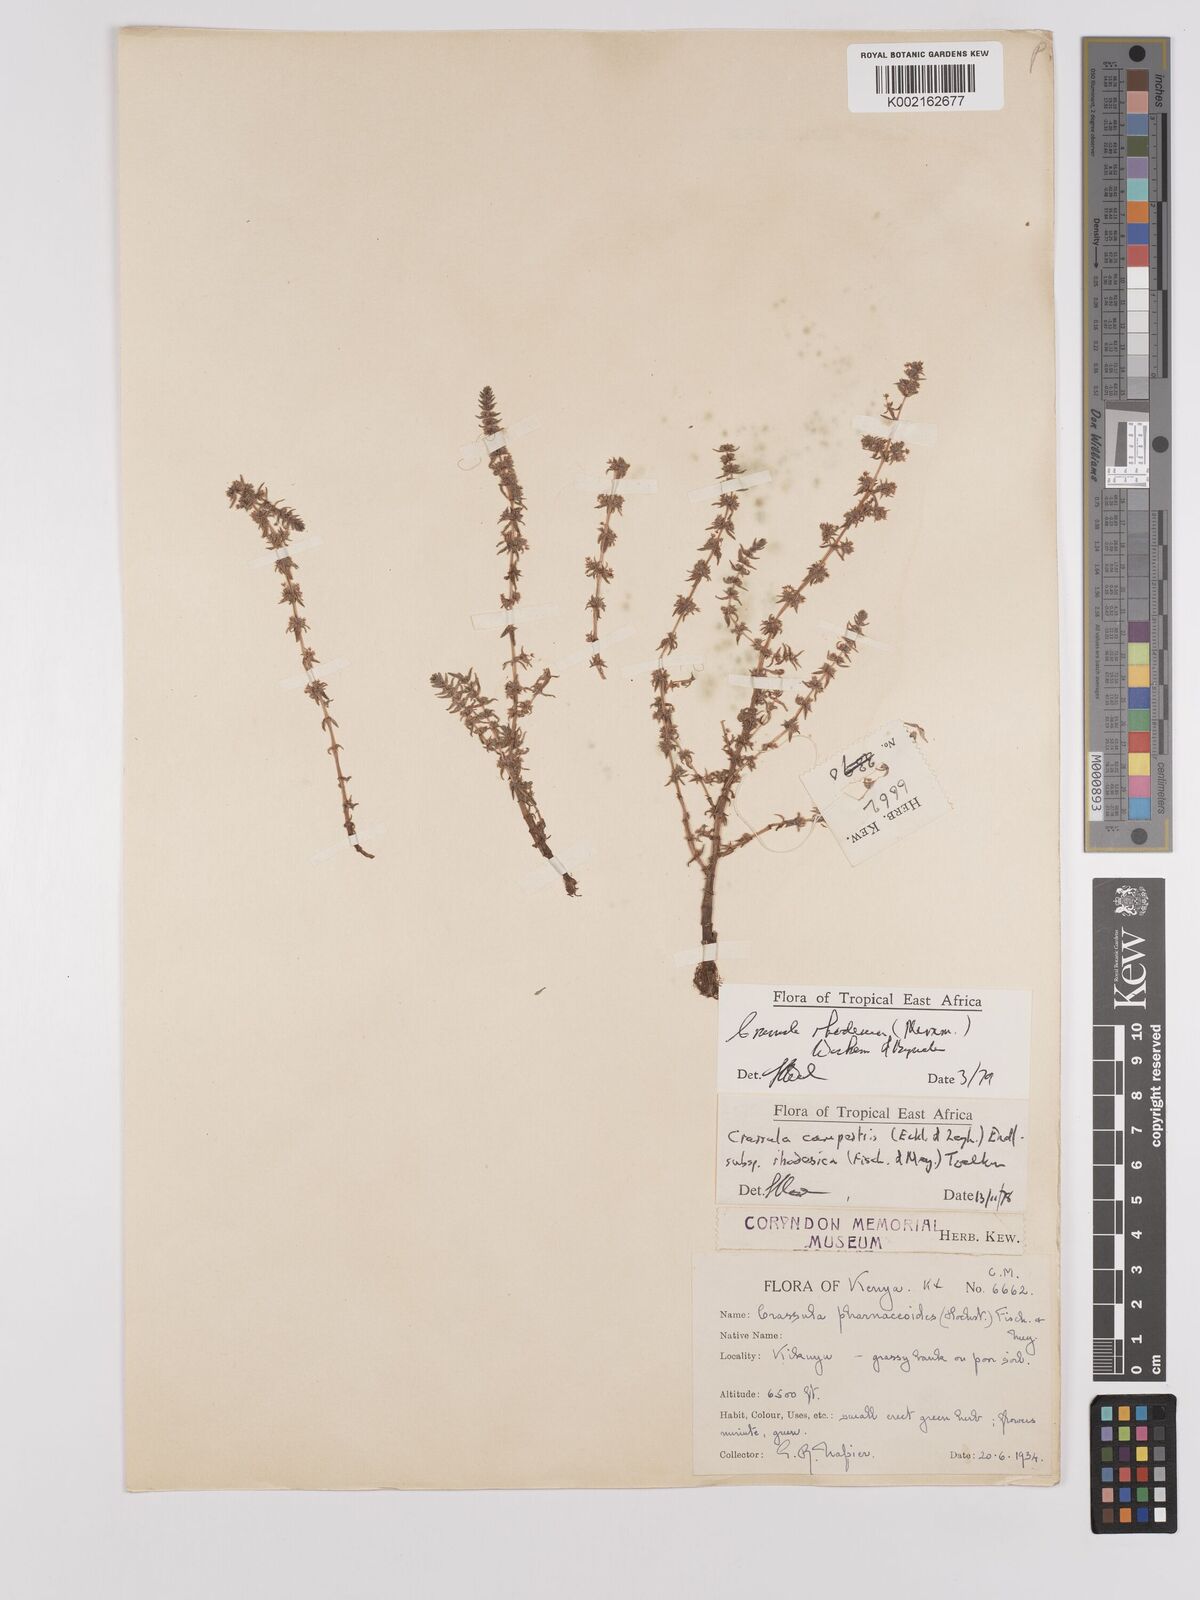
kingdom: Plantae
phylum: Tracheophyta
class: Magnoliopsida
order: Saxifragales
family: Crassulaceae
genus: Crassula
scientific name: Crassula rhodesica
